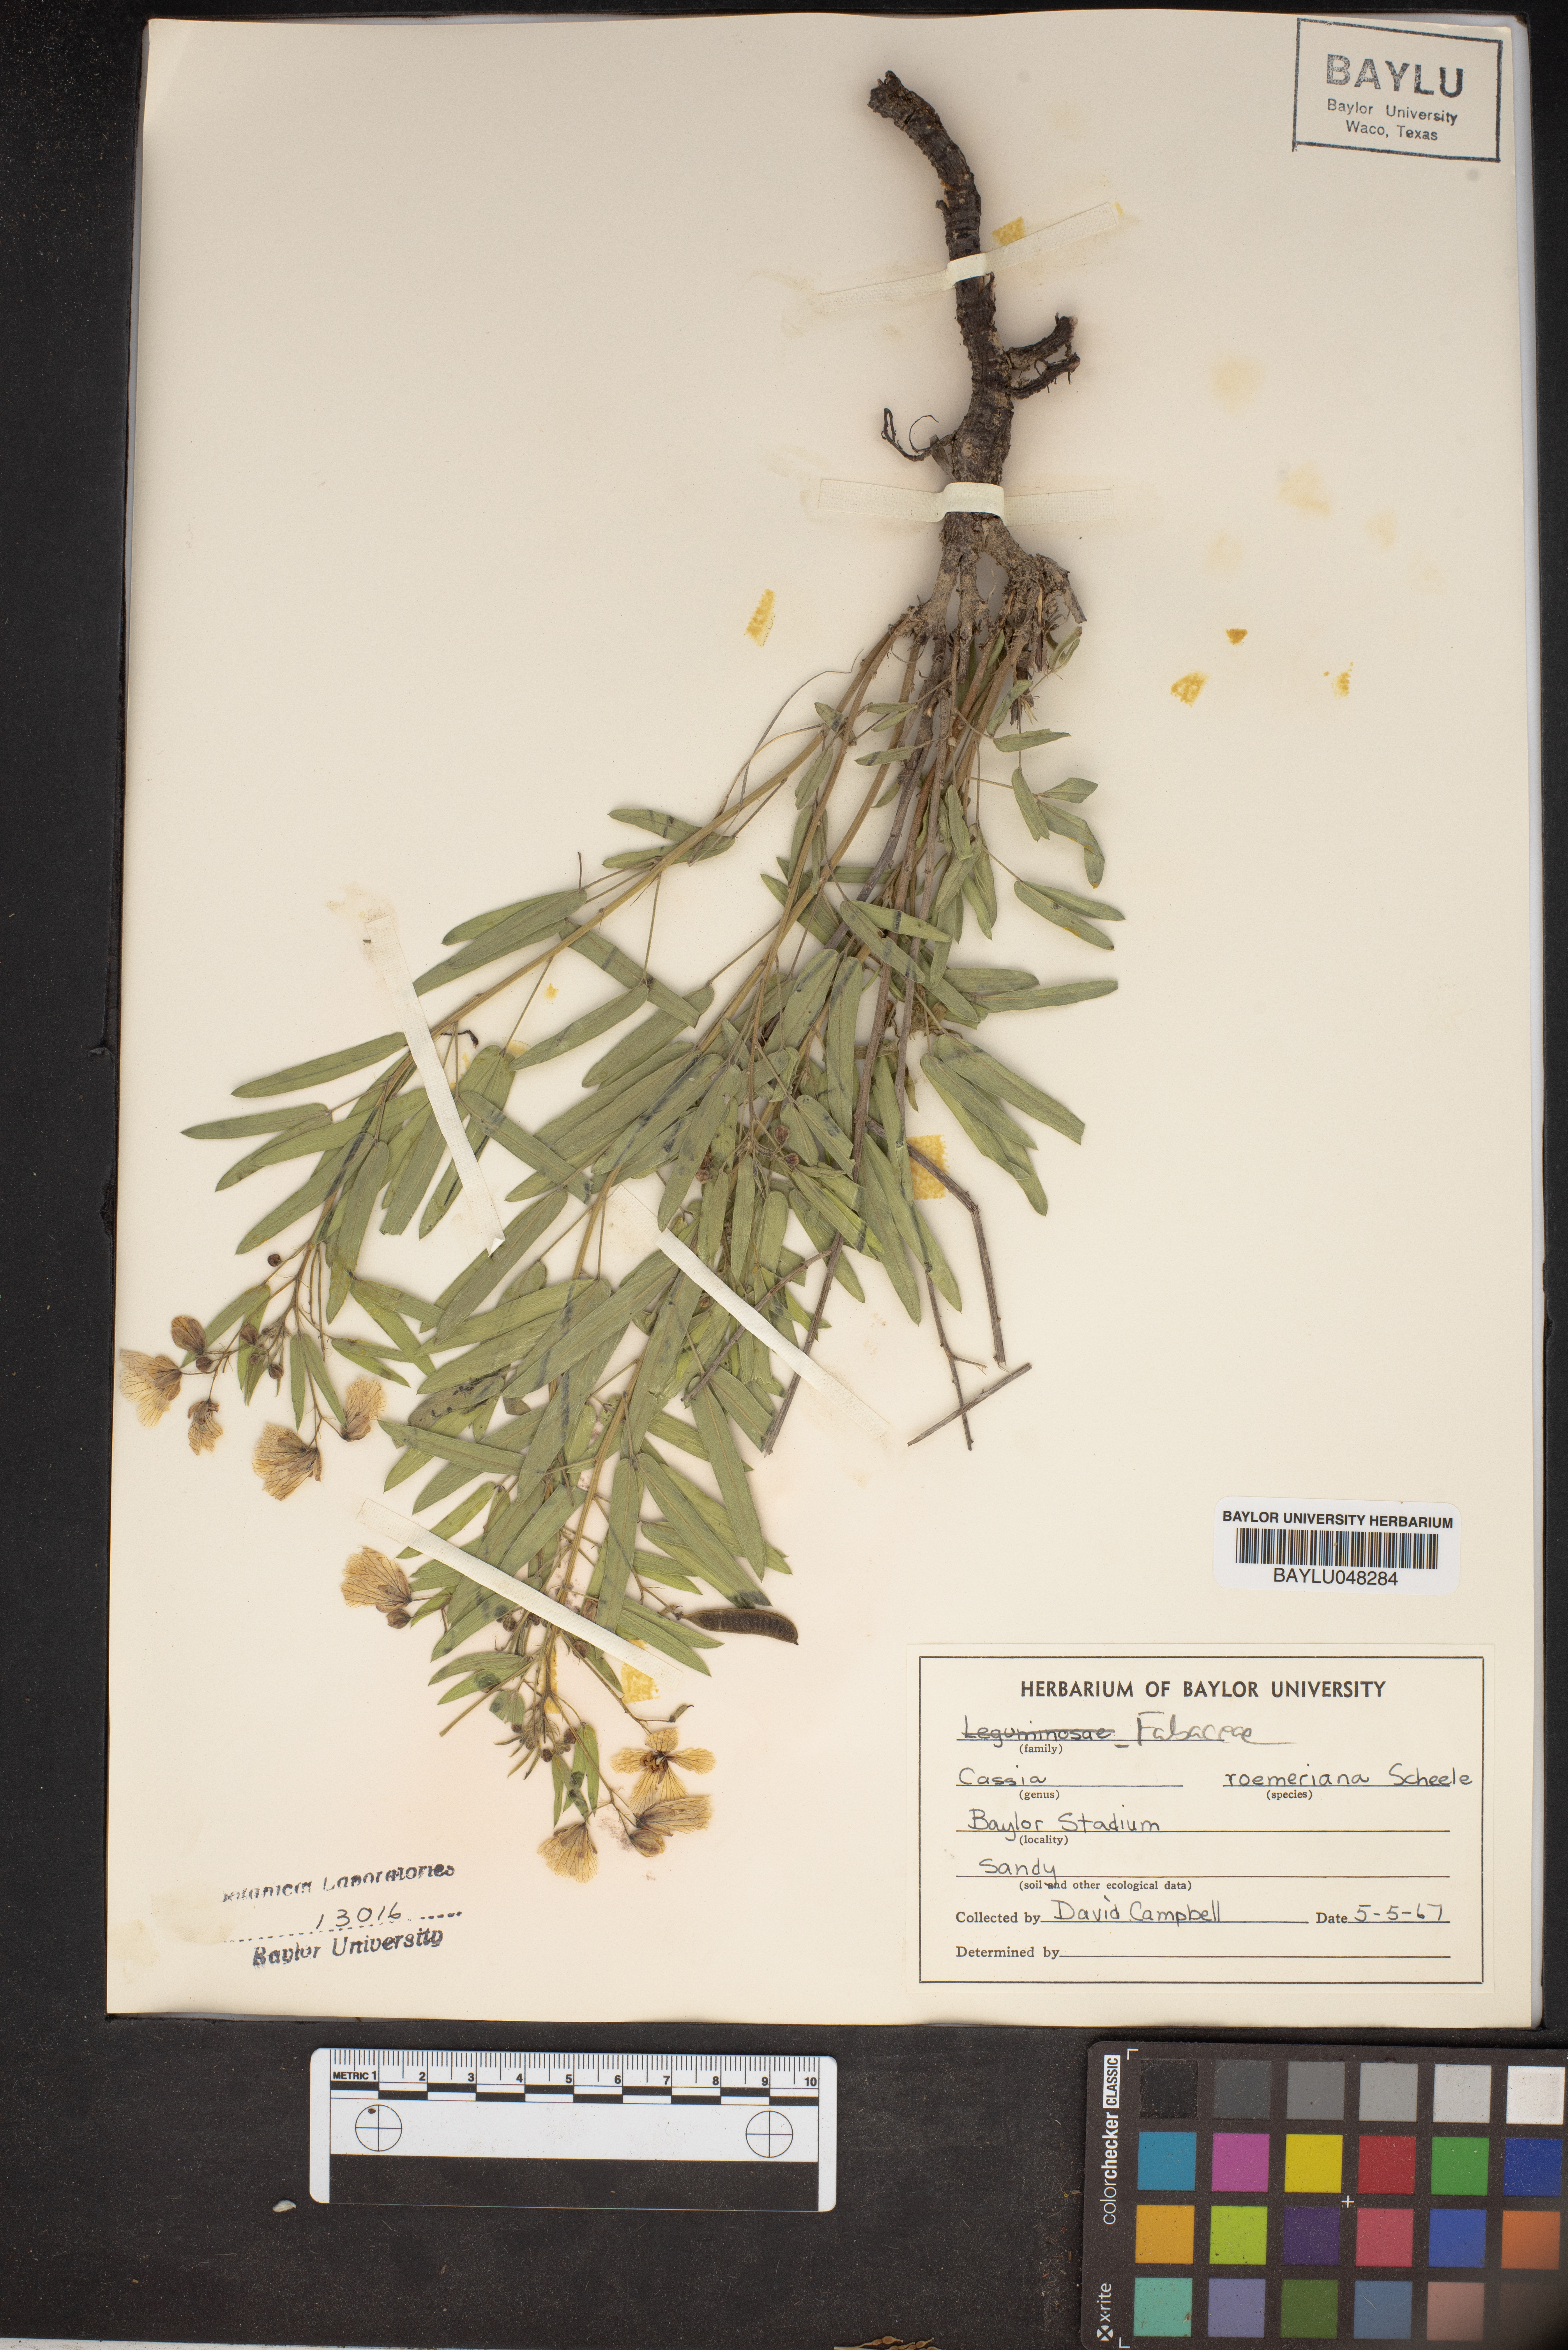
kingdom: Plantae
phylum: Tracheophyta
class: Magnoliopsida
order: Fabales
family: Fabaceae
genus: Senna
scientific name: Senna roemeriana
